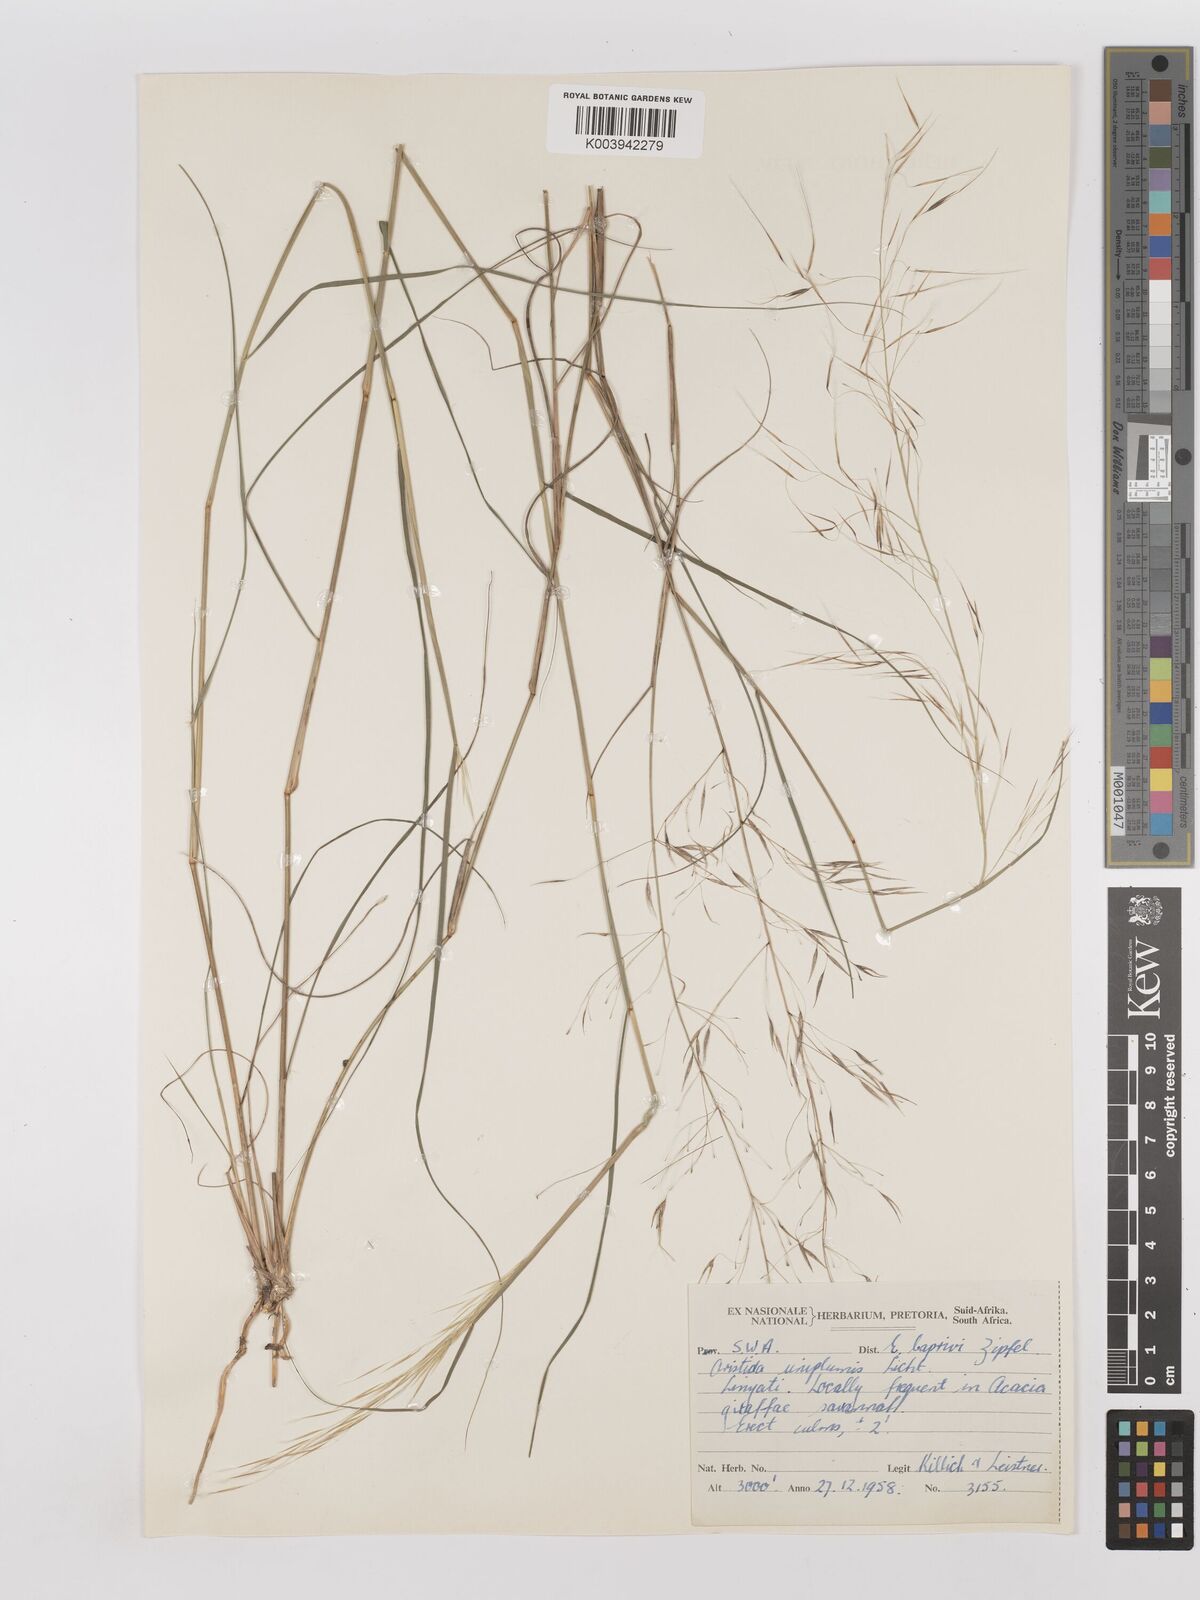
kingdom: Plantae
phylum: Tracheophyta
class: Liliopsida
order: Poales
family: Poaceae
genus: Stipagrostis
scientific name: Stipagrostis uniplumis
